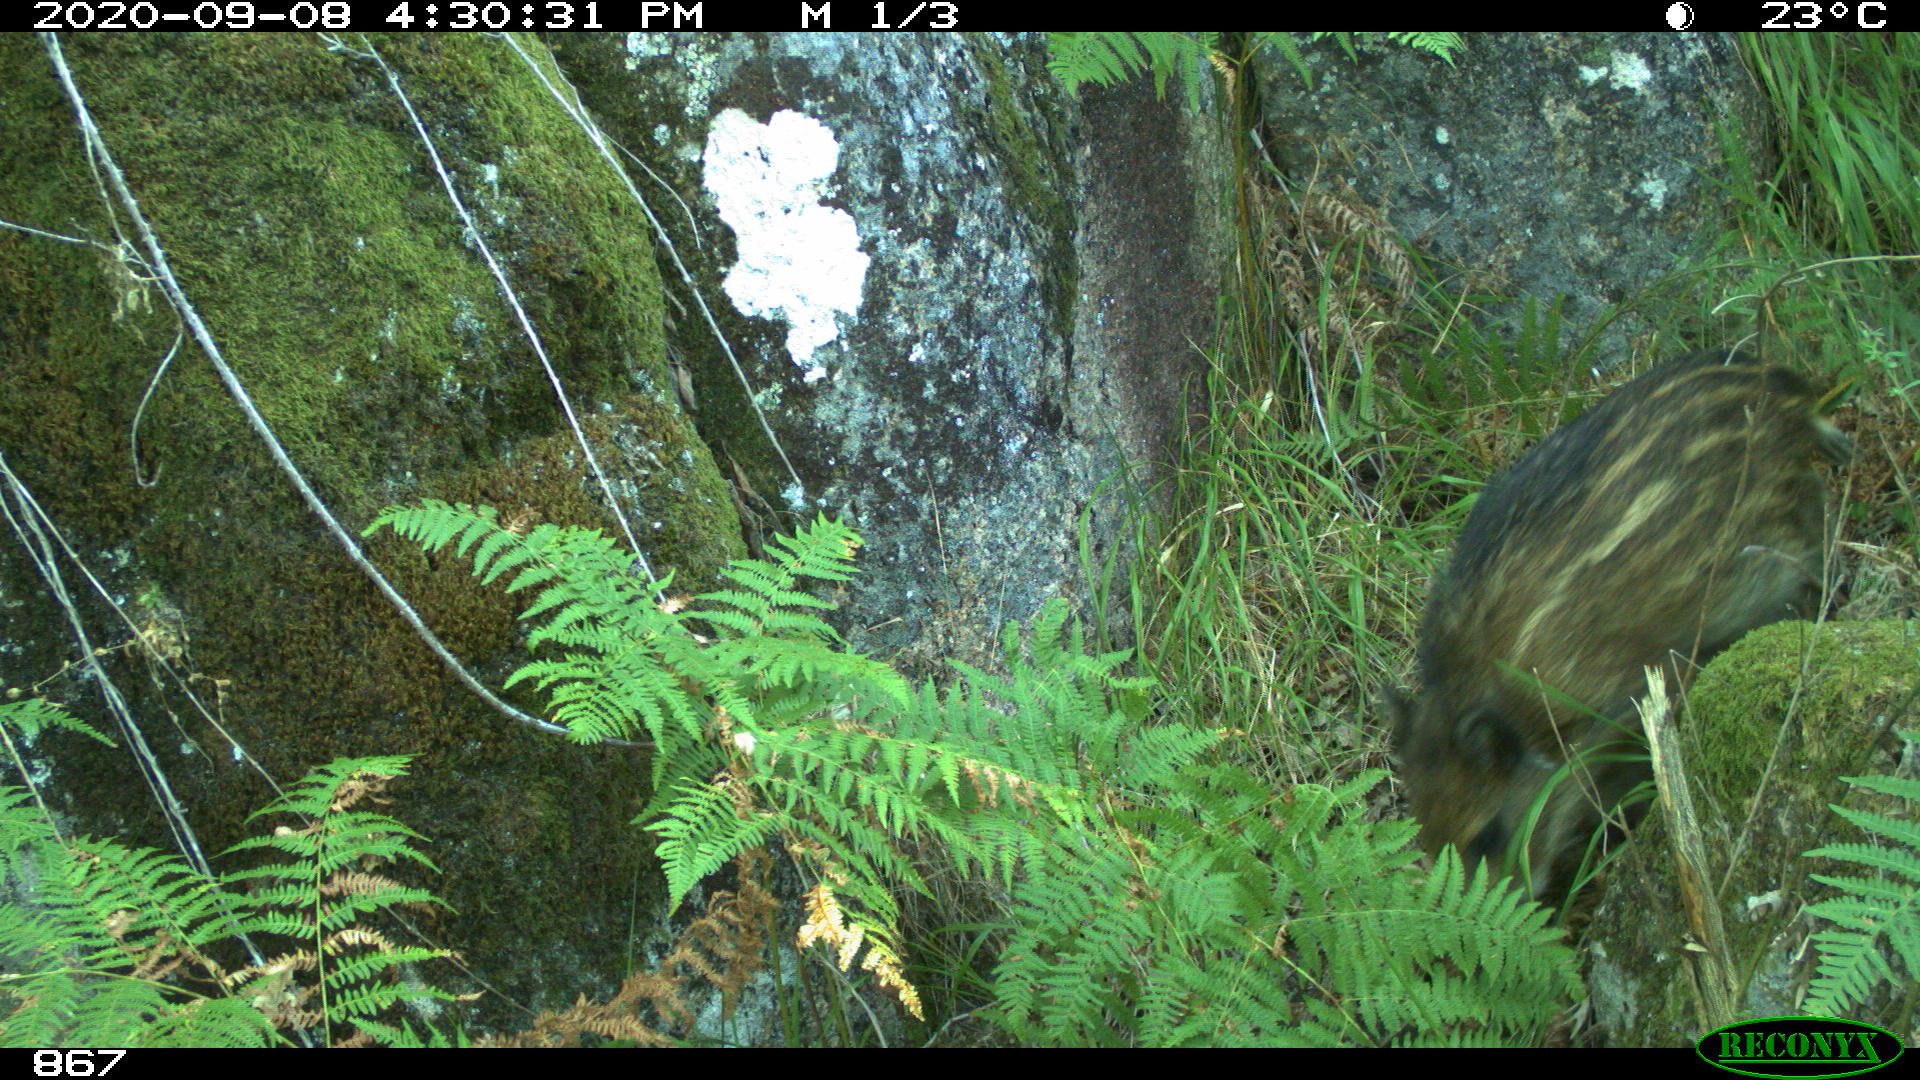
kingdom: Animalia
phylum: Chordata
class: Mammalia
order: Artiodactyla
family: Suidae
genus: Sus
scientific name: Sus scrofa
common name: Wild boar
